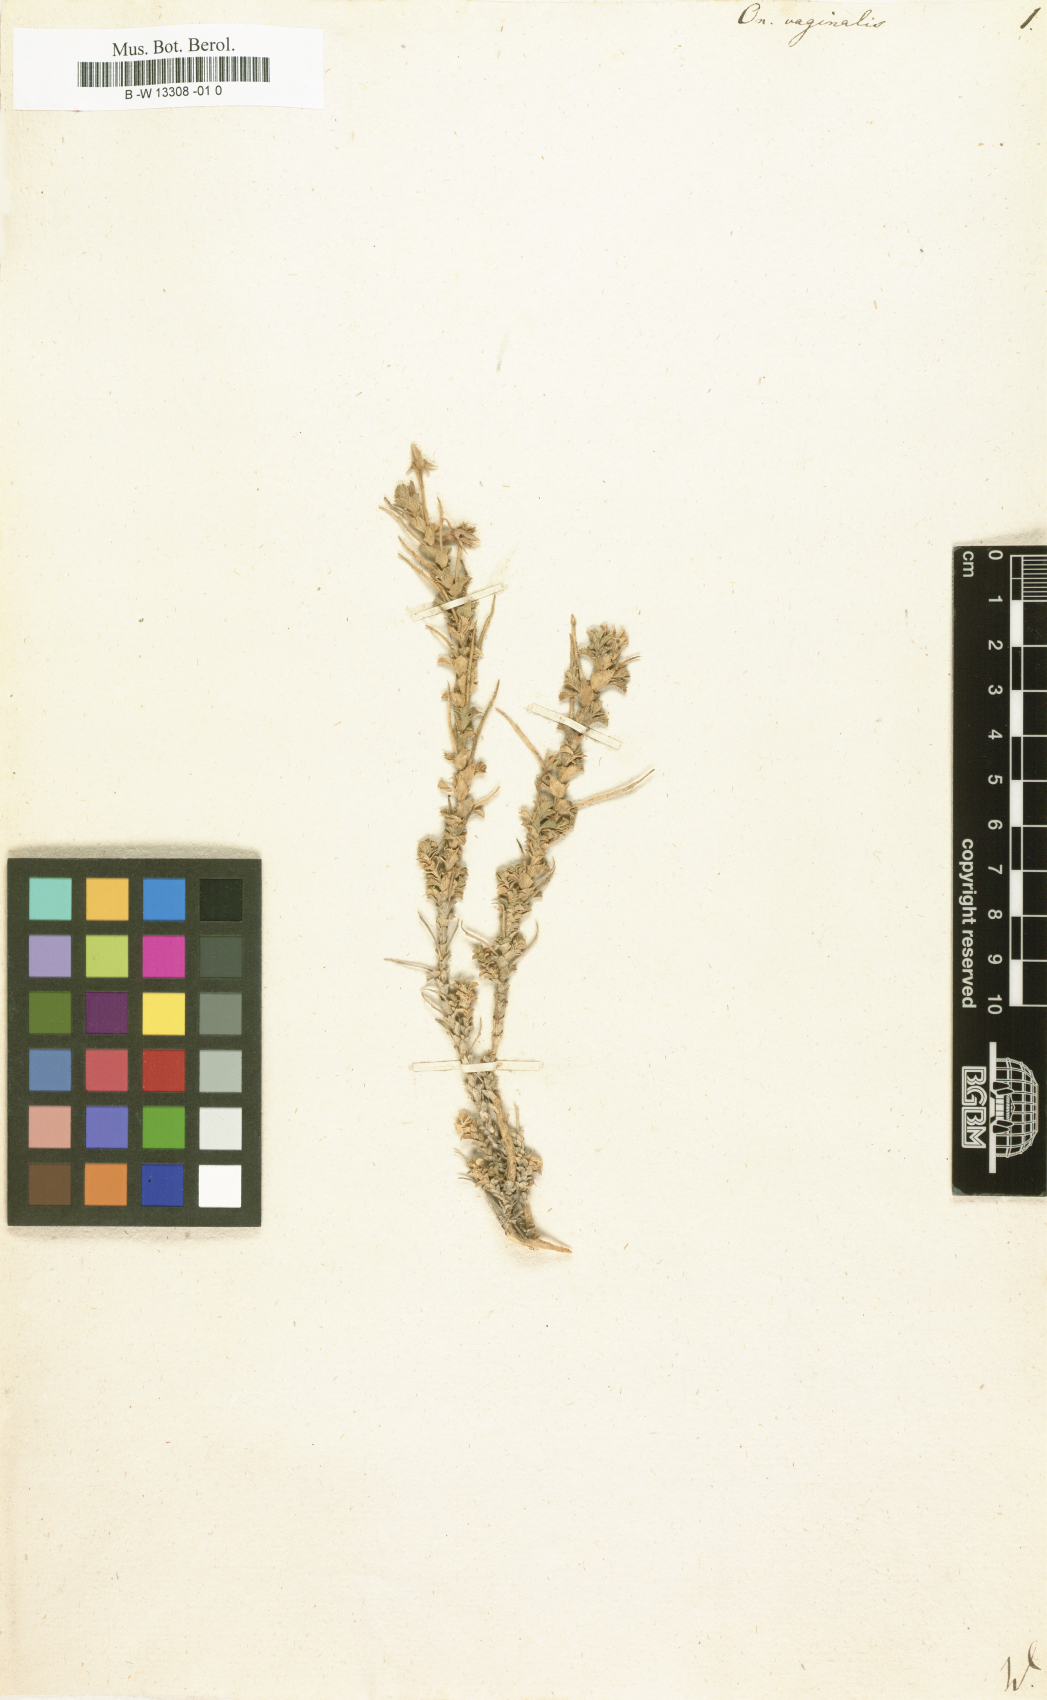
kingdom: Plantae
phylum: Tracheophyta
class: Magnoliopsida
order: Fabales
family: Fabaceae
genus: Ononis
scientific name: Ononis vaginalis
